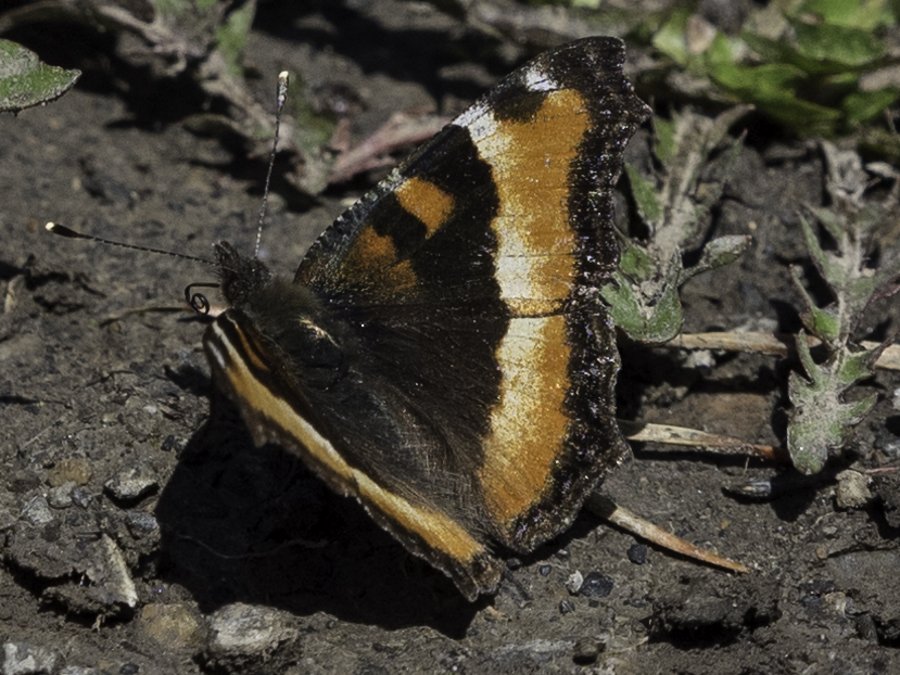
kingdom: Animalia
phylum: Arthropoda
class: Insecta
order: Lepidoptera
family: Nymphalidae
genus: Aglais
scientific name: Aglais milberti
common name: Milbert's Tortoiseshell
